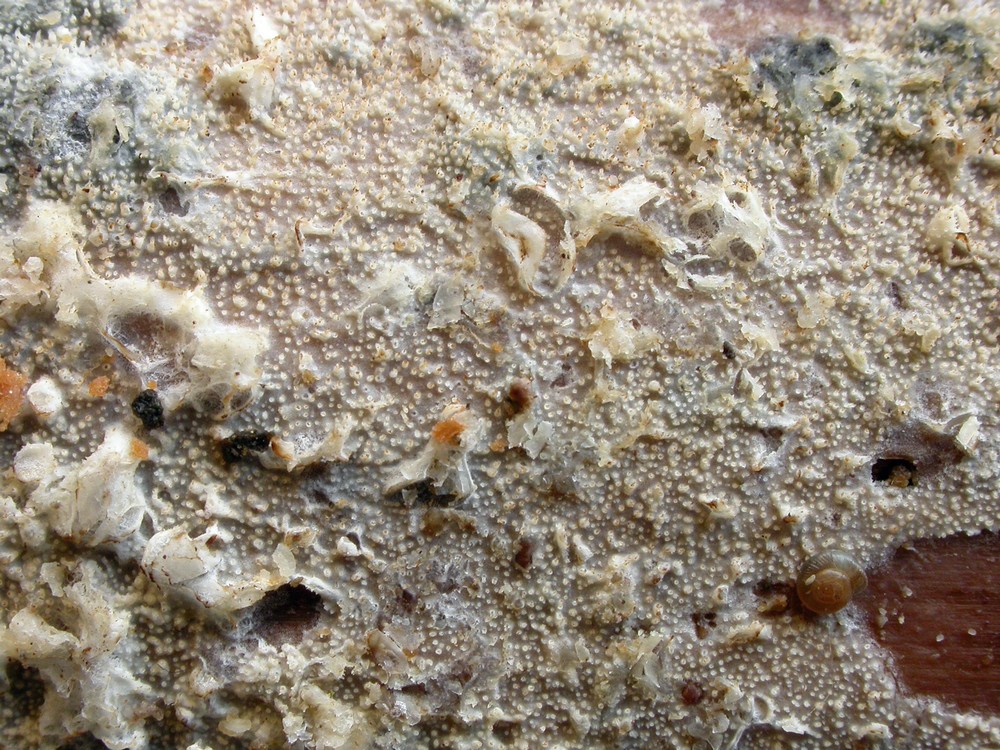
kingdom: Fungi
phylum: Basidiomycota
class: Agaricomycetes
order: Hymenochaetales
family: Rickenellaceae
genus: Resinicium
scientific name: Resinicium bicolor
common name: almindelig vokstand
